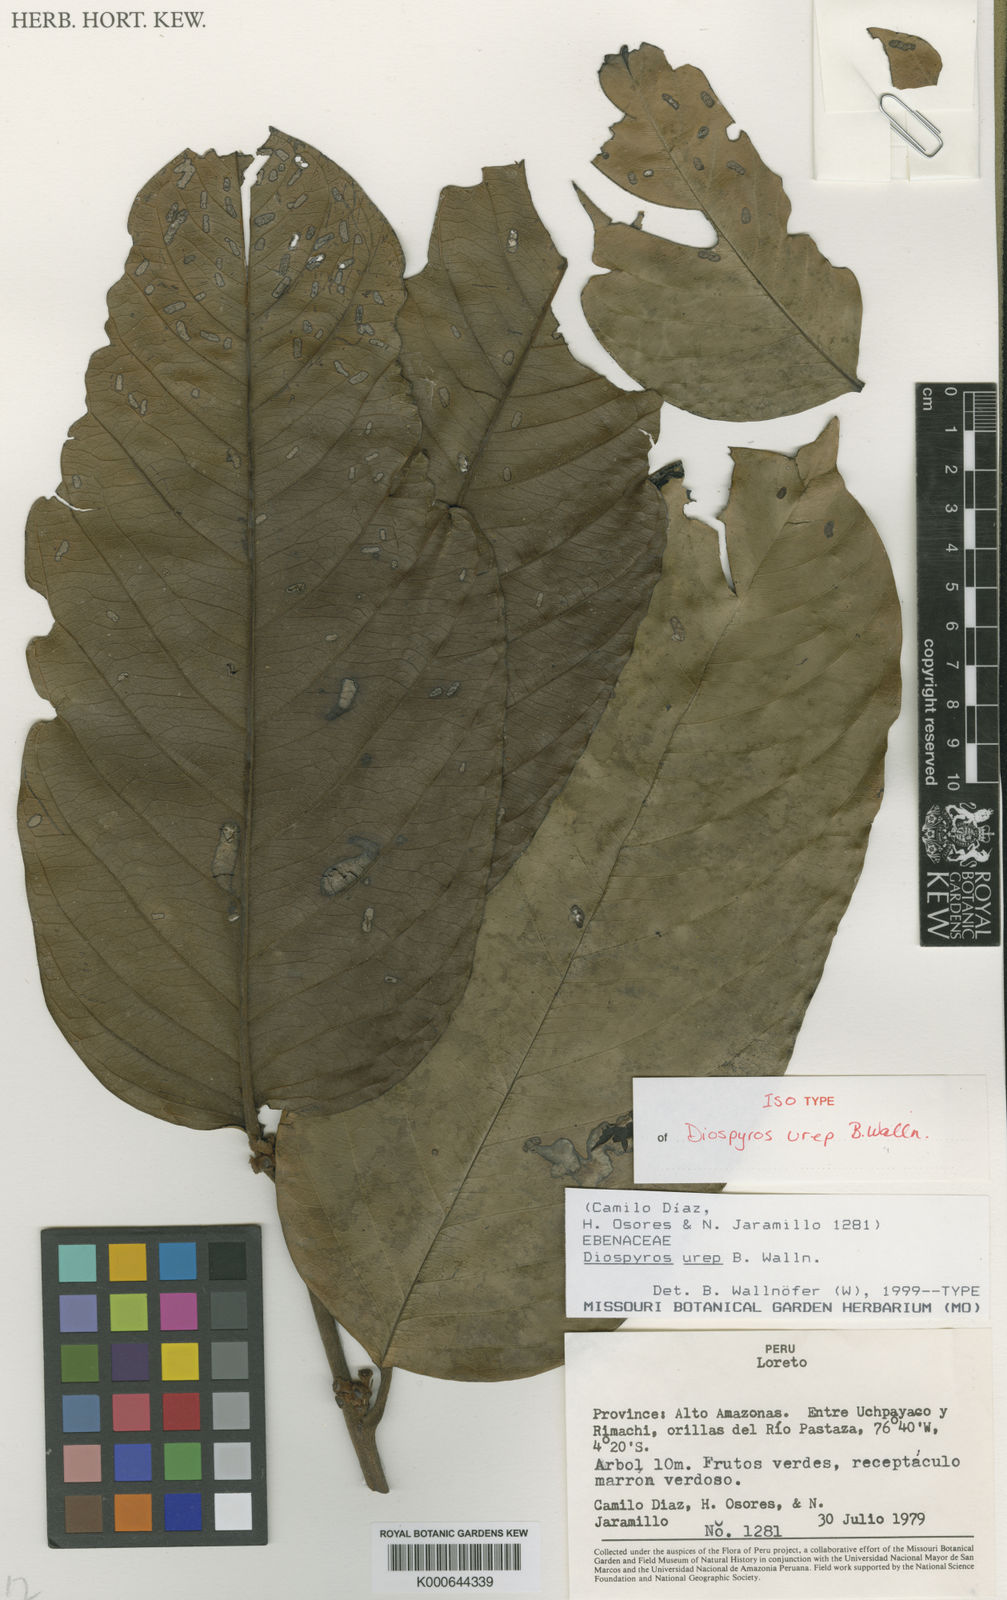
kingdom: Plantae
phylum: Tracheophyta
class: Magnoliopsida
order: Ericales
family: Ebenaceae
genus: Diospyros
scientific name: Diospyros urep
